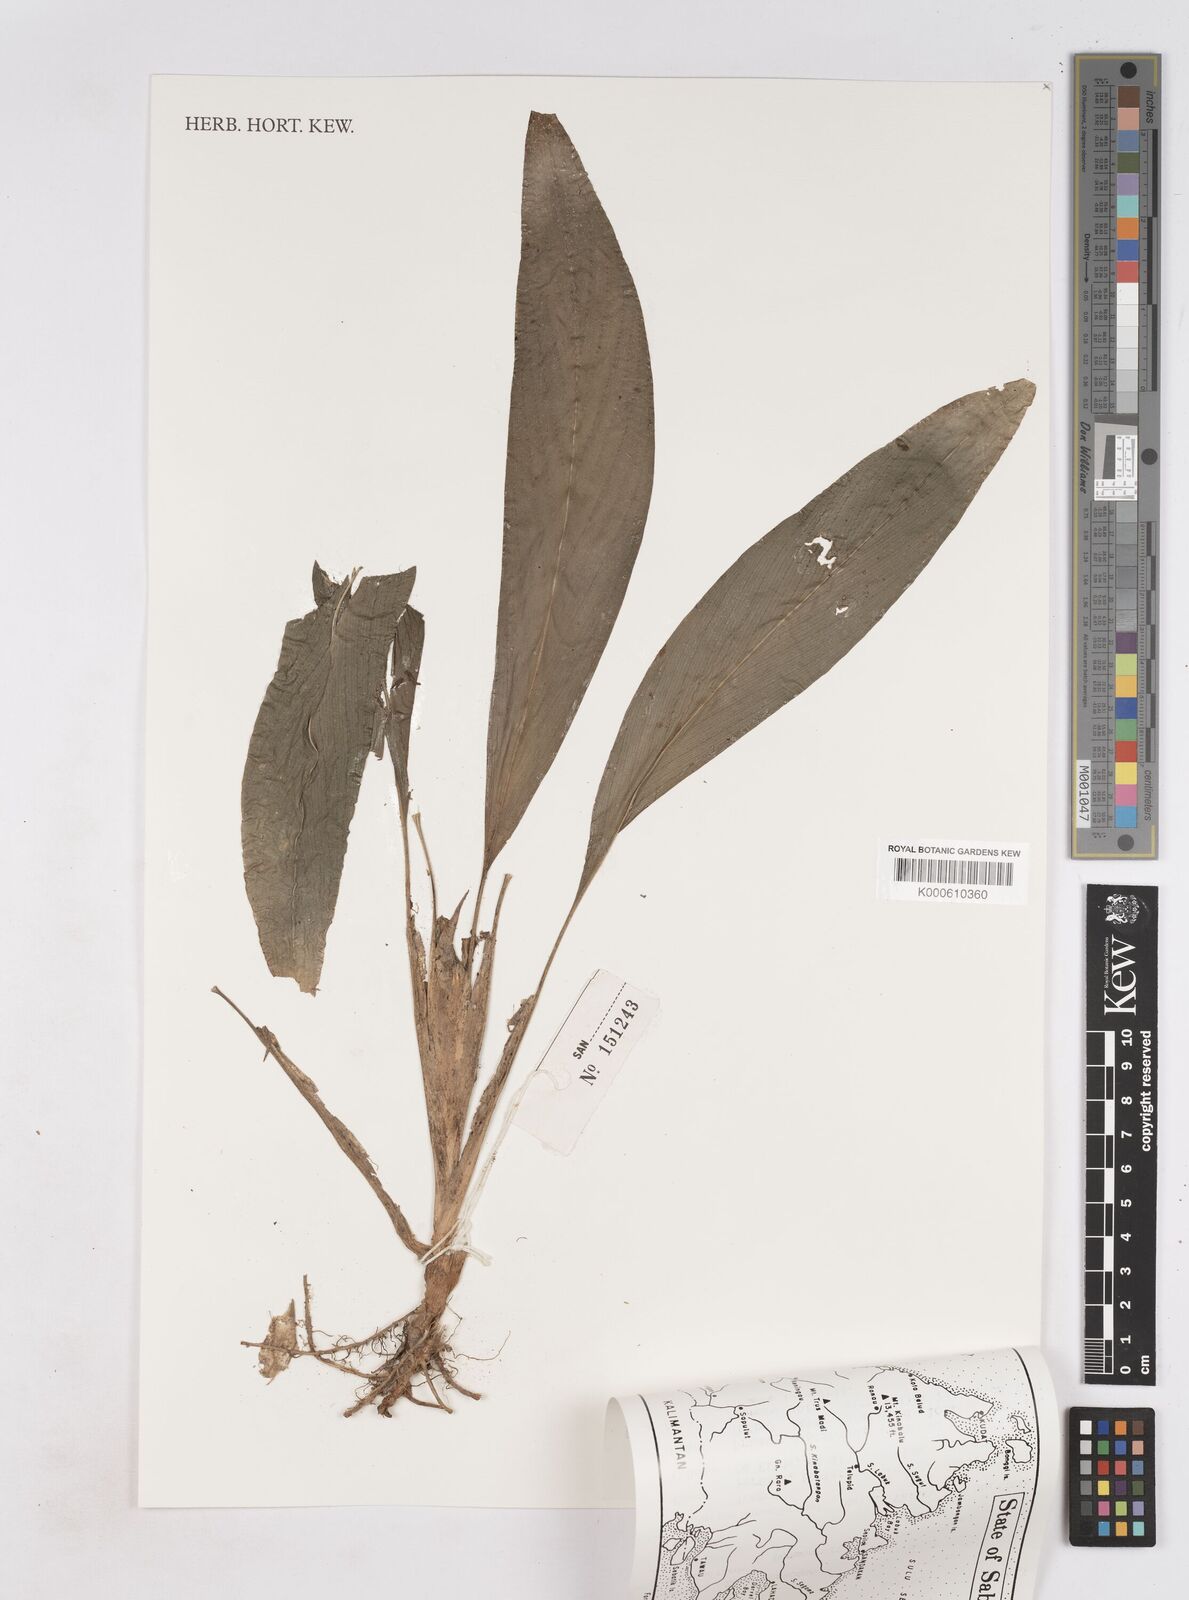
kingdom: Plantae
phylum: Tracheophyta
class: Liliopsida
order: Zingiberales
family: Zingiberaceae
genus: Boesenbergia
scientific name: Boesenbergia
